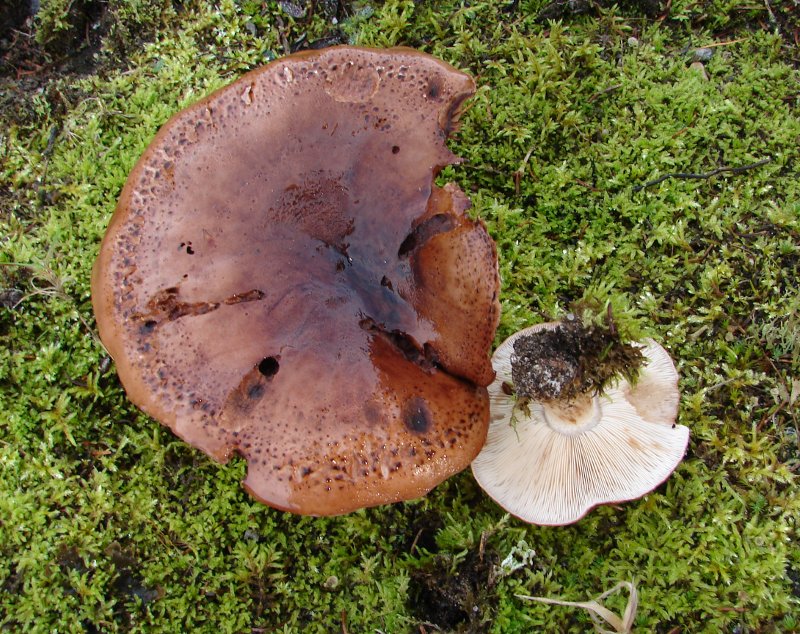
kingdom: Fungi
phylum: Basidiomycota
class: Agaricomycetes
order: Agaricales
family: Tricholomataceae
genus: Tricholoma
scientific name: Tricholoma pessundatum
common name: dråbeplettet ridderhat
